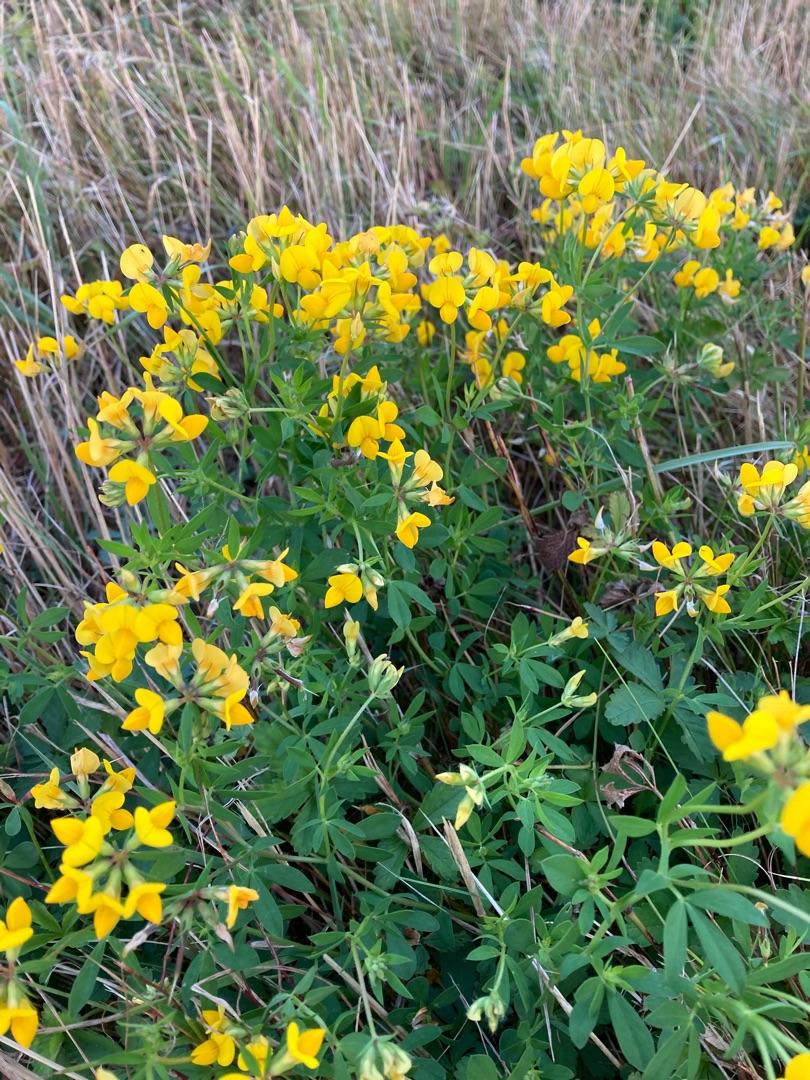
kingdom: Plantae
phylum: Tracheophyta
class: Magnoliopsida
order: Fabales
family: Fabaceae
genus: Lotus
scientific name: Lotus corniculatus
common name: Almindelig kællingetand
